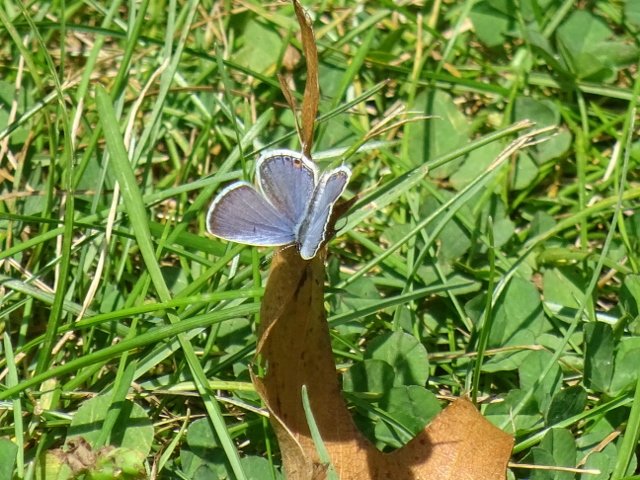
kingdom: Animalia
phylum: Arthropoda
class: Insecta
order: Lepidoptera
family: Lycaenidae
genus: Elkalyce
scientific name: Elkalyce comyntas
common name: Eastern Tailed-Blue
